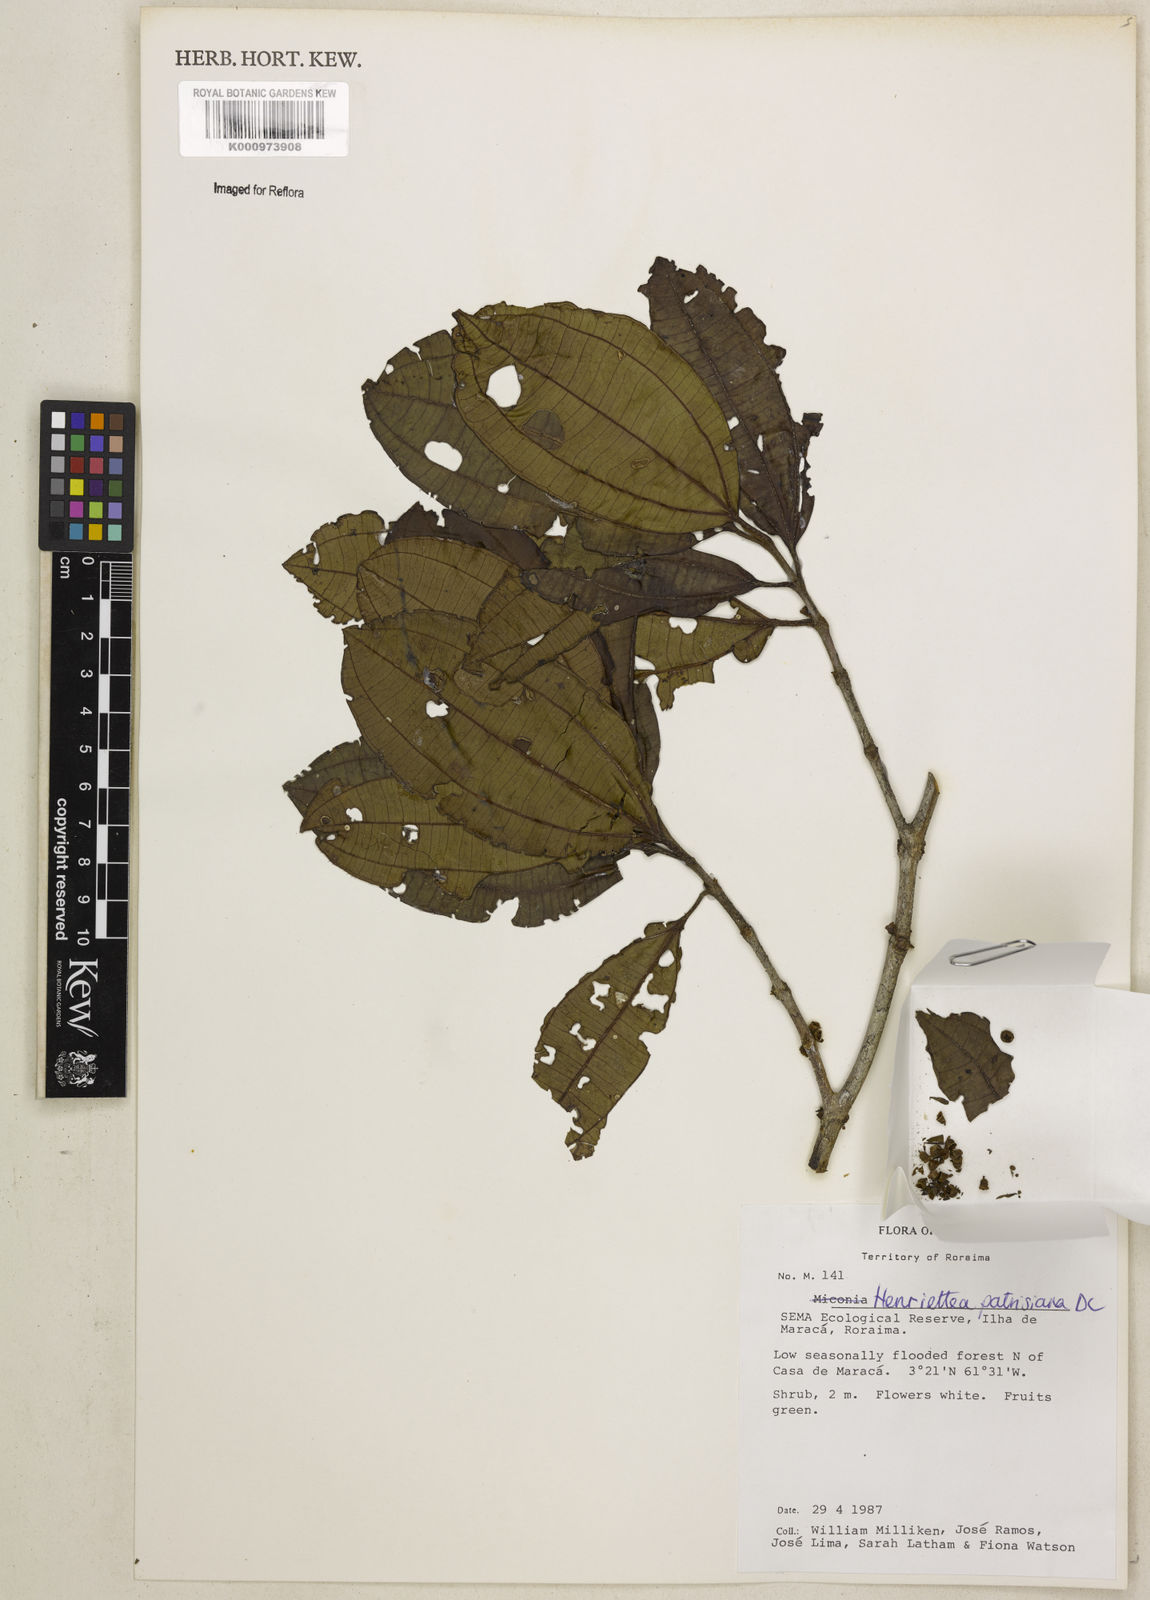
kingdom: Plantae
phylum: Tracheophyta
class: Magnoliopsida
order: Myrtales
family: Melastomataceae
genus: Henriettea
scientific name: Henriettea patrisiana
